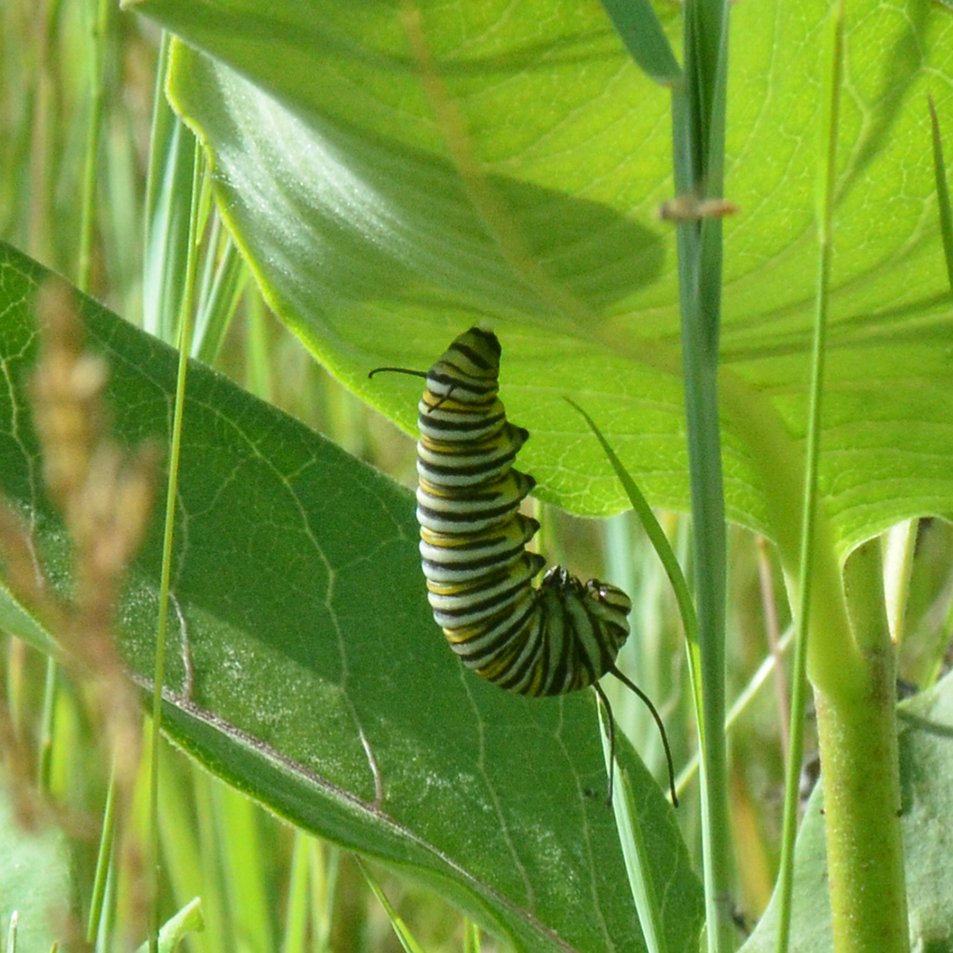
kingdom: Animalia
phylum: Arthropoda
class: Insecta
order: Lepidoptera
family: Nymphalidae
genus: Danaus
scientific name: Danaus plexippus
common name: Monarch
